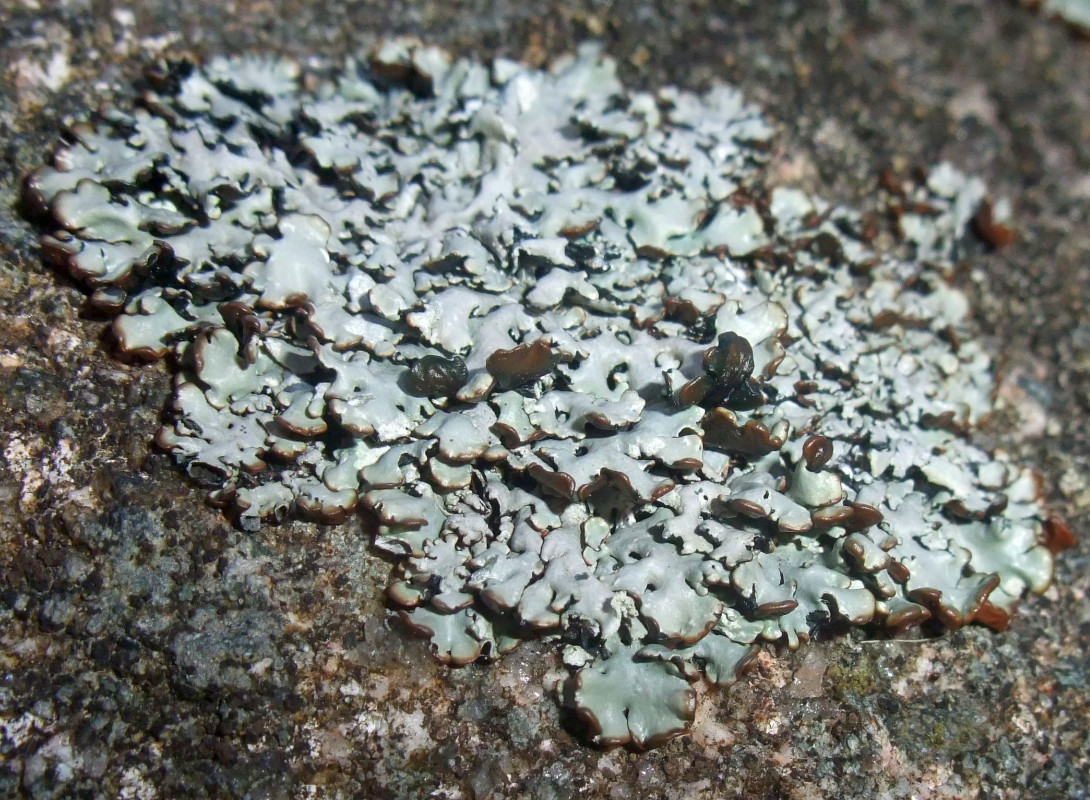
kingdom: Fungi
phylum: Ascomycota
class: Lecanoromycetes
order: Lecanorales
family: Parmeliaceae
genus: Hypogymnia
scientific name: Hypogymnia physodes
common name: almindelig kvistlav
